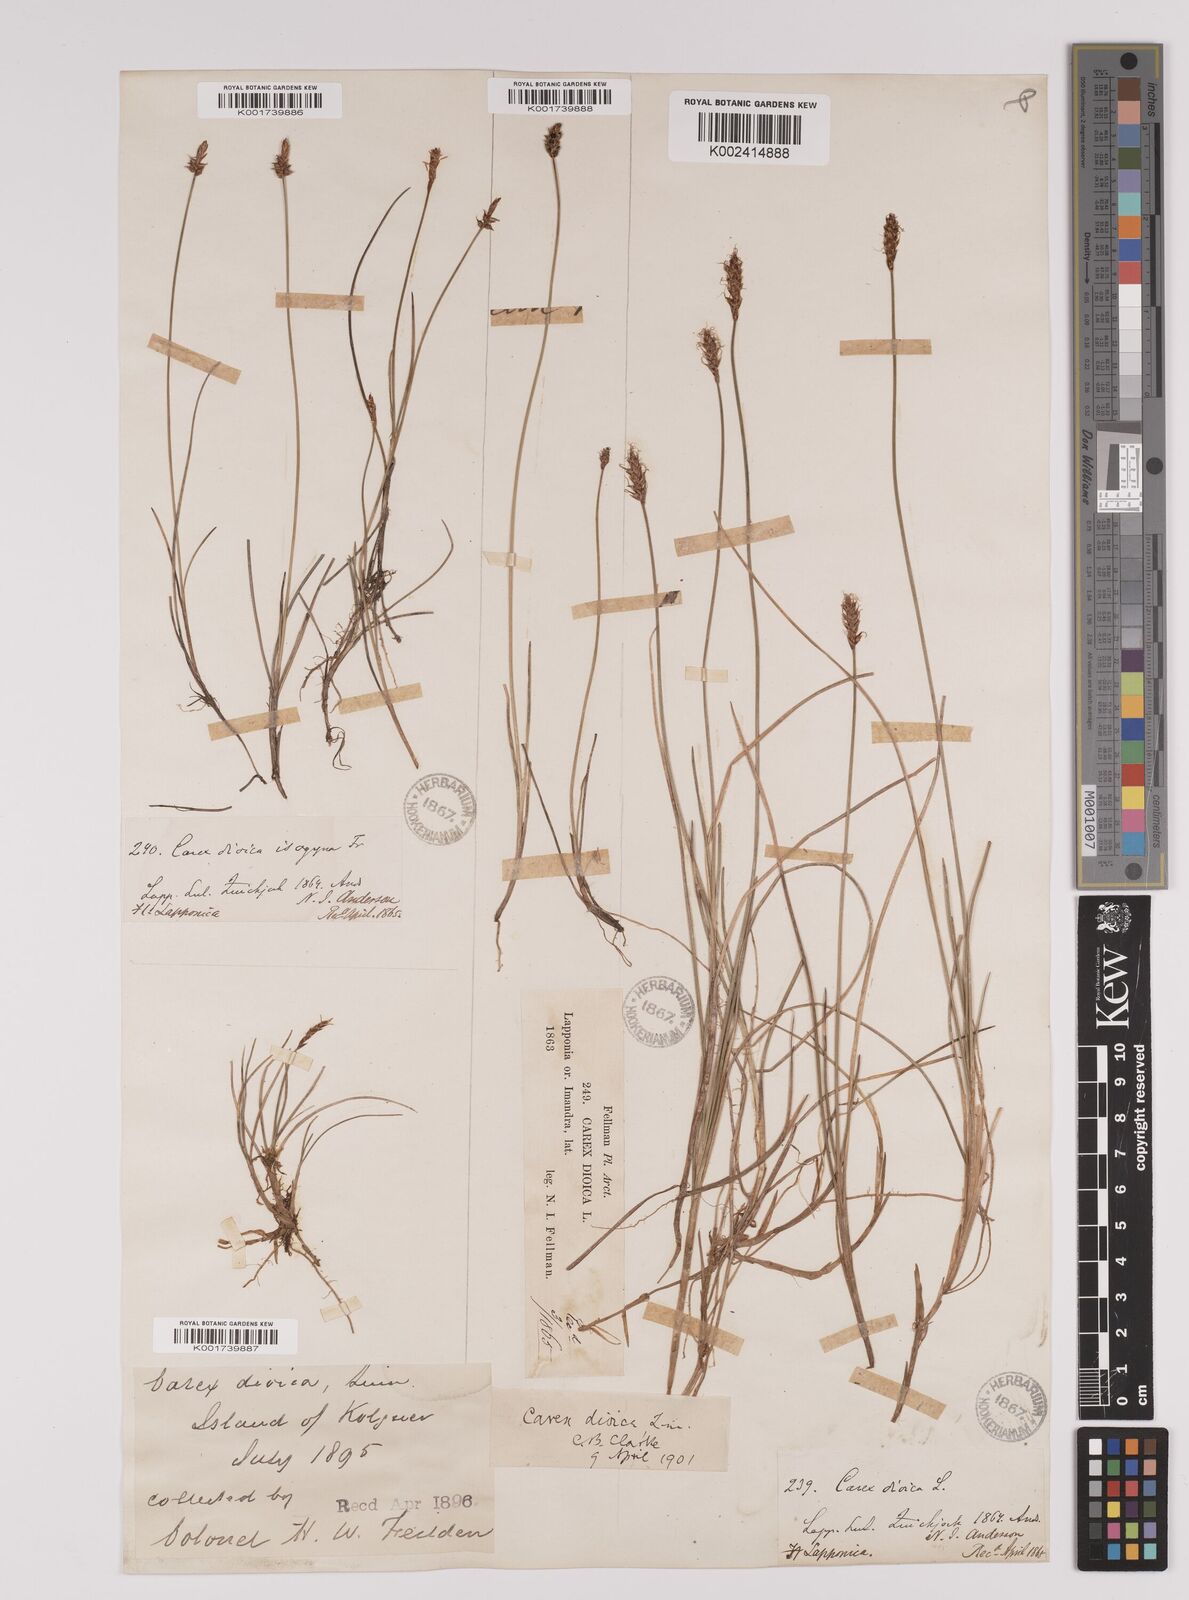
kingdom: Plantae
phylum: Tracheophyta
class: Liliopsida
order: Poales
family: Cyperaceae
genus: Carex
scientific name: Carex dioica
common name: Dioecious sedge
